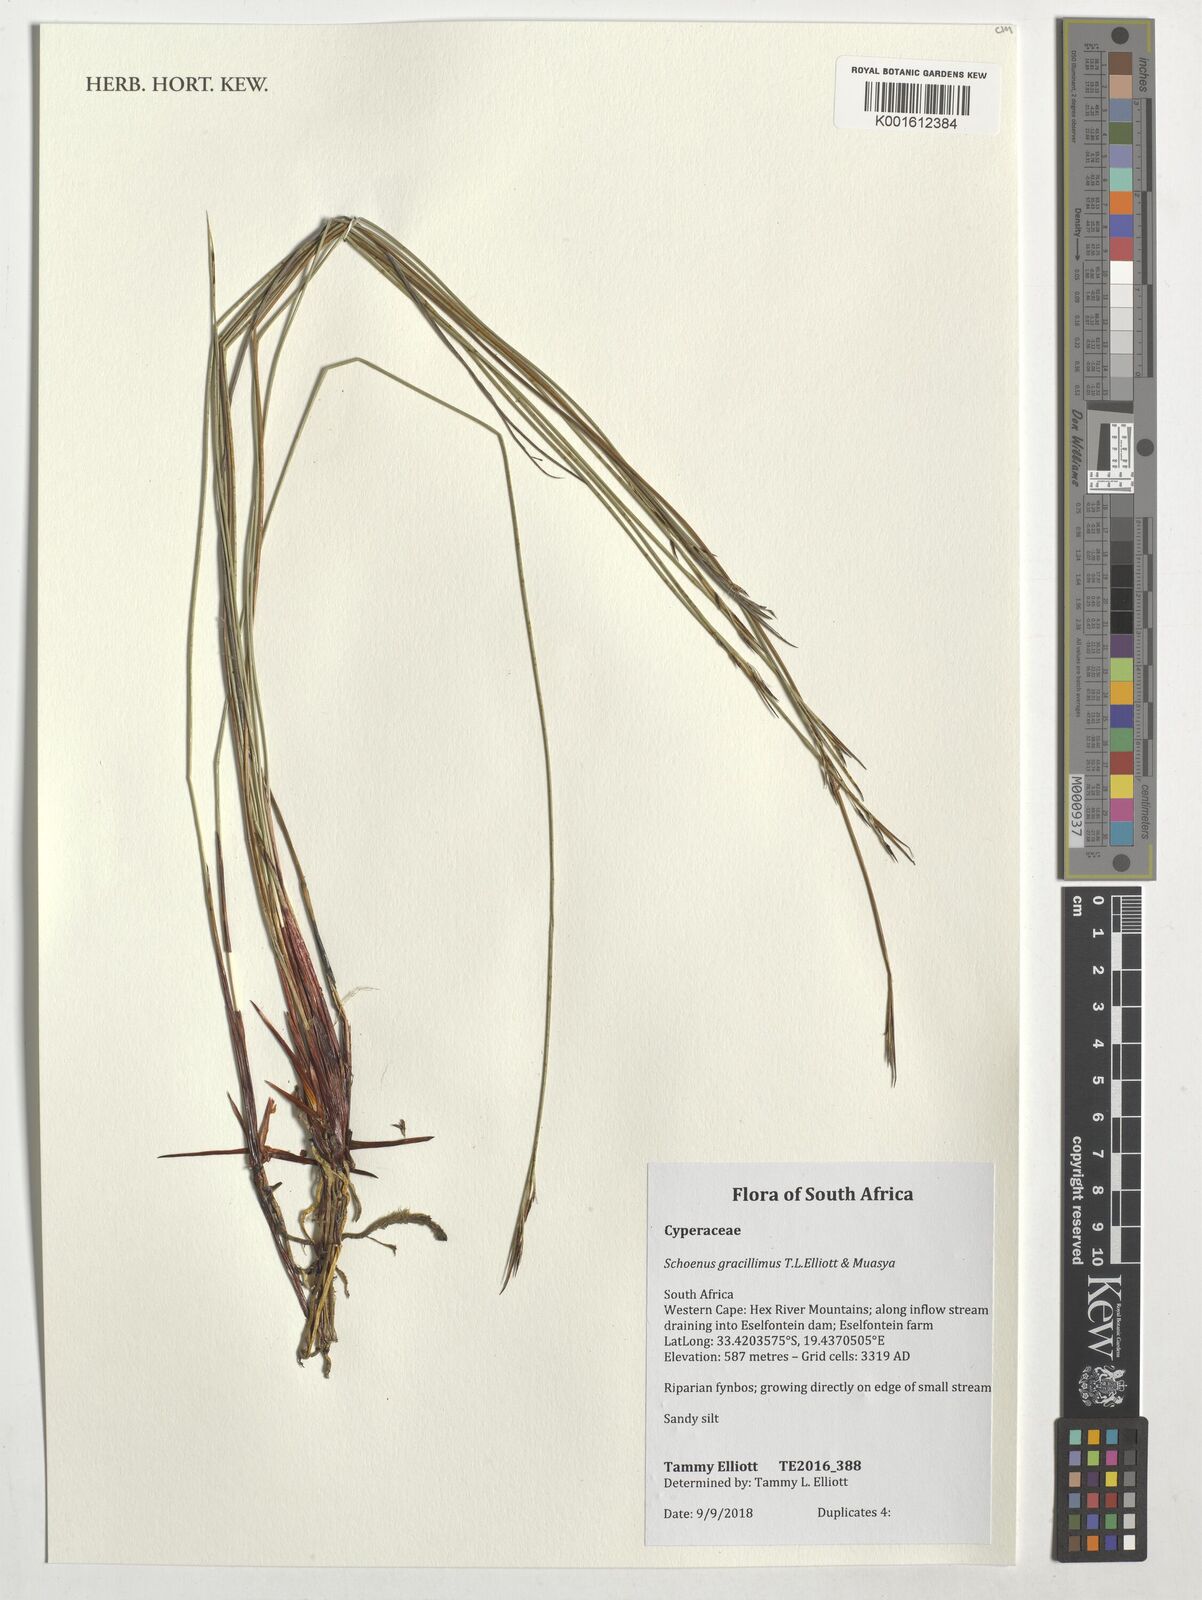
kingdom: Plantae
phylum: Tracheophyta
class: Liliopsida
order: Poales
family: Cyperaceae
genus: Schoenus
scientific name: Schoenus
